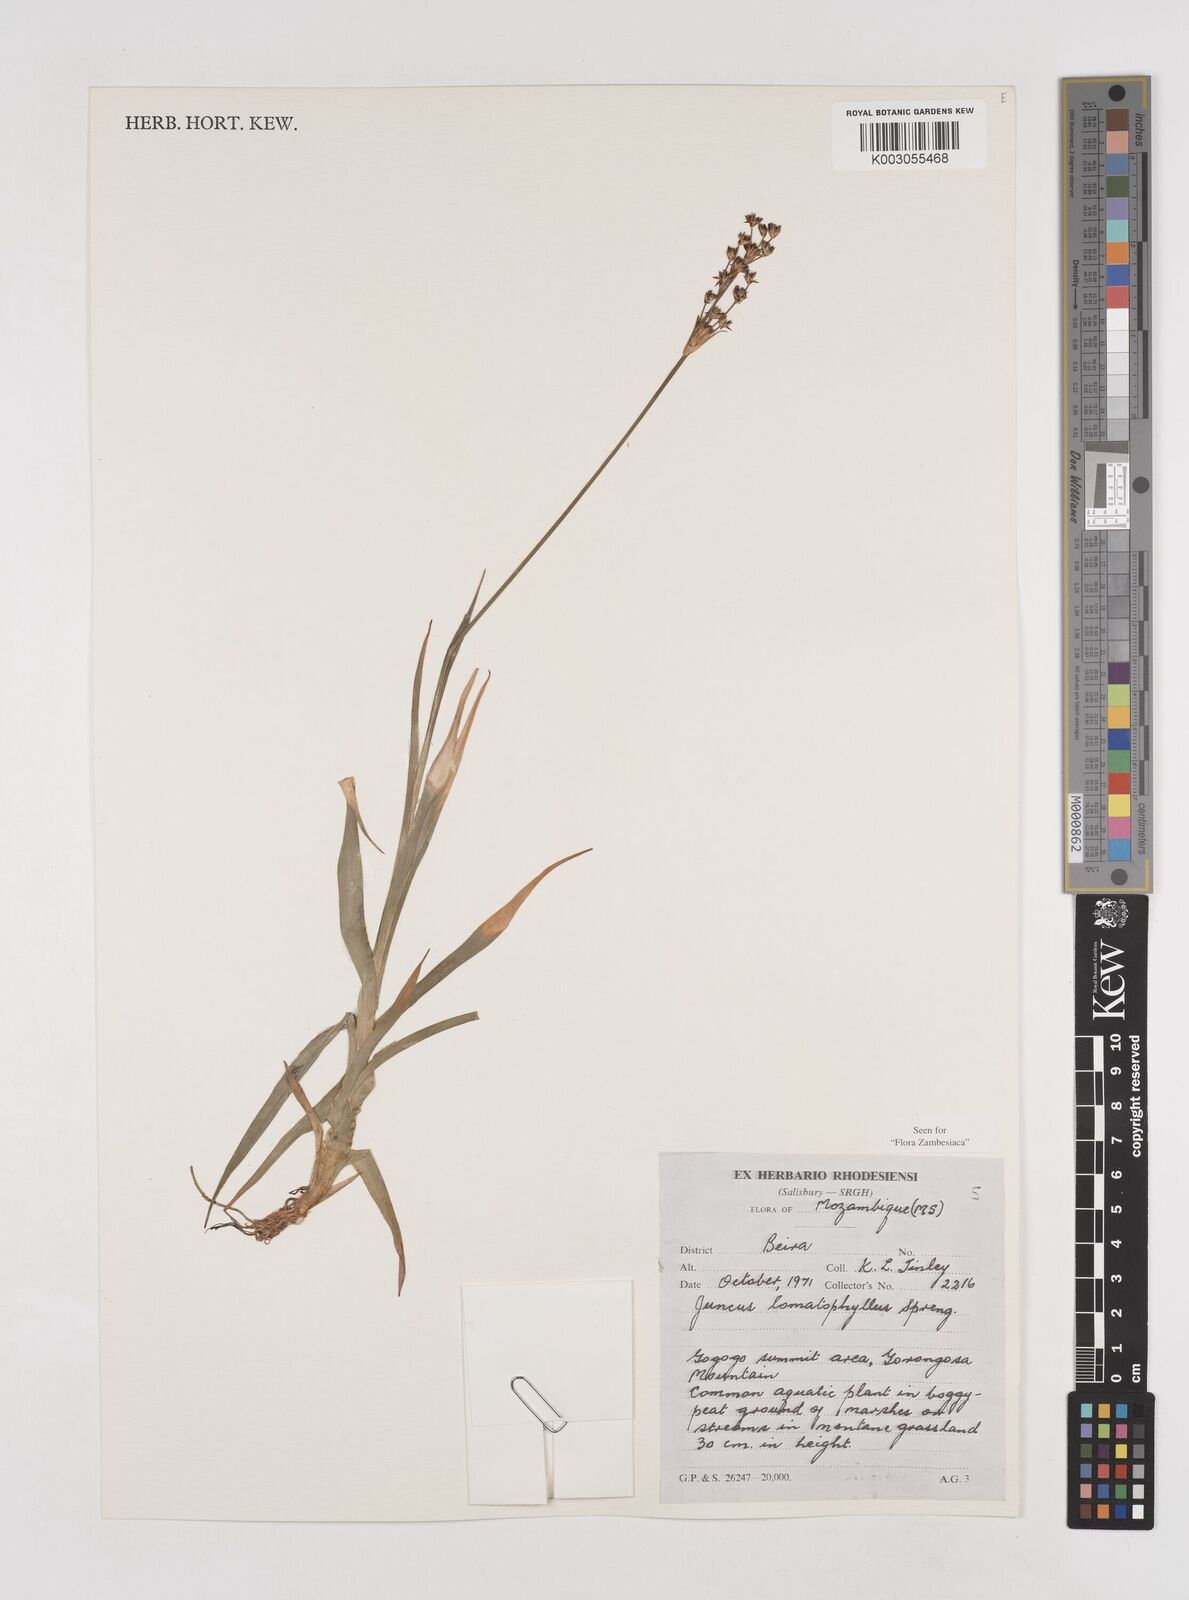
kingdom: Plantae
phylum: Tracheophyta
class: Liliopsida
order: Poales
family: Juncaceae
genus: Juncus
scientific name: Juncus lomatophyllus
